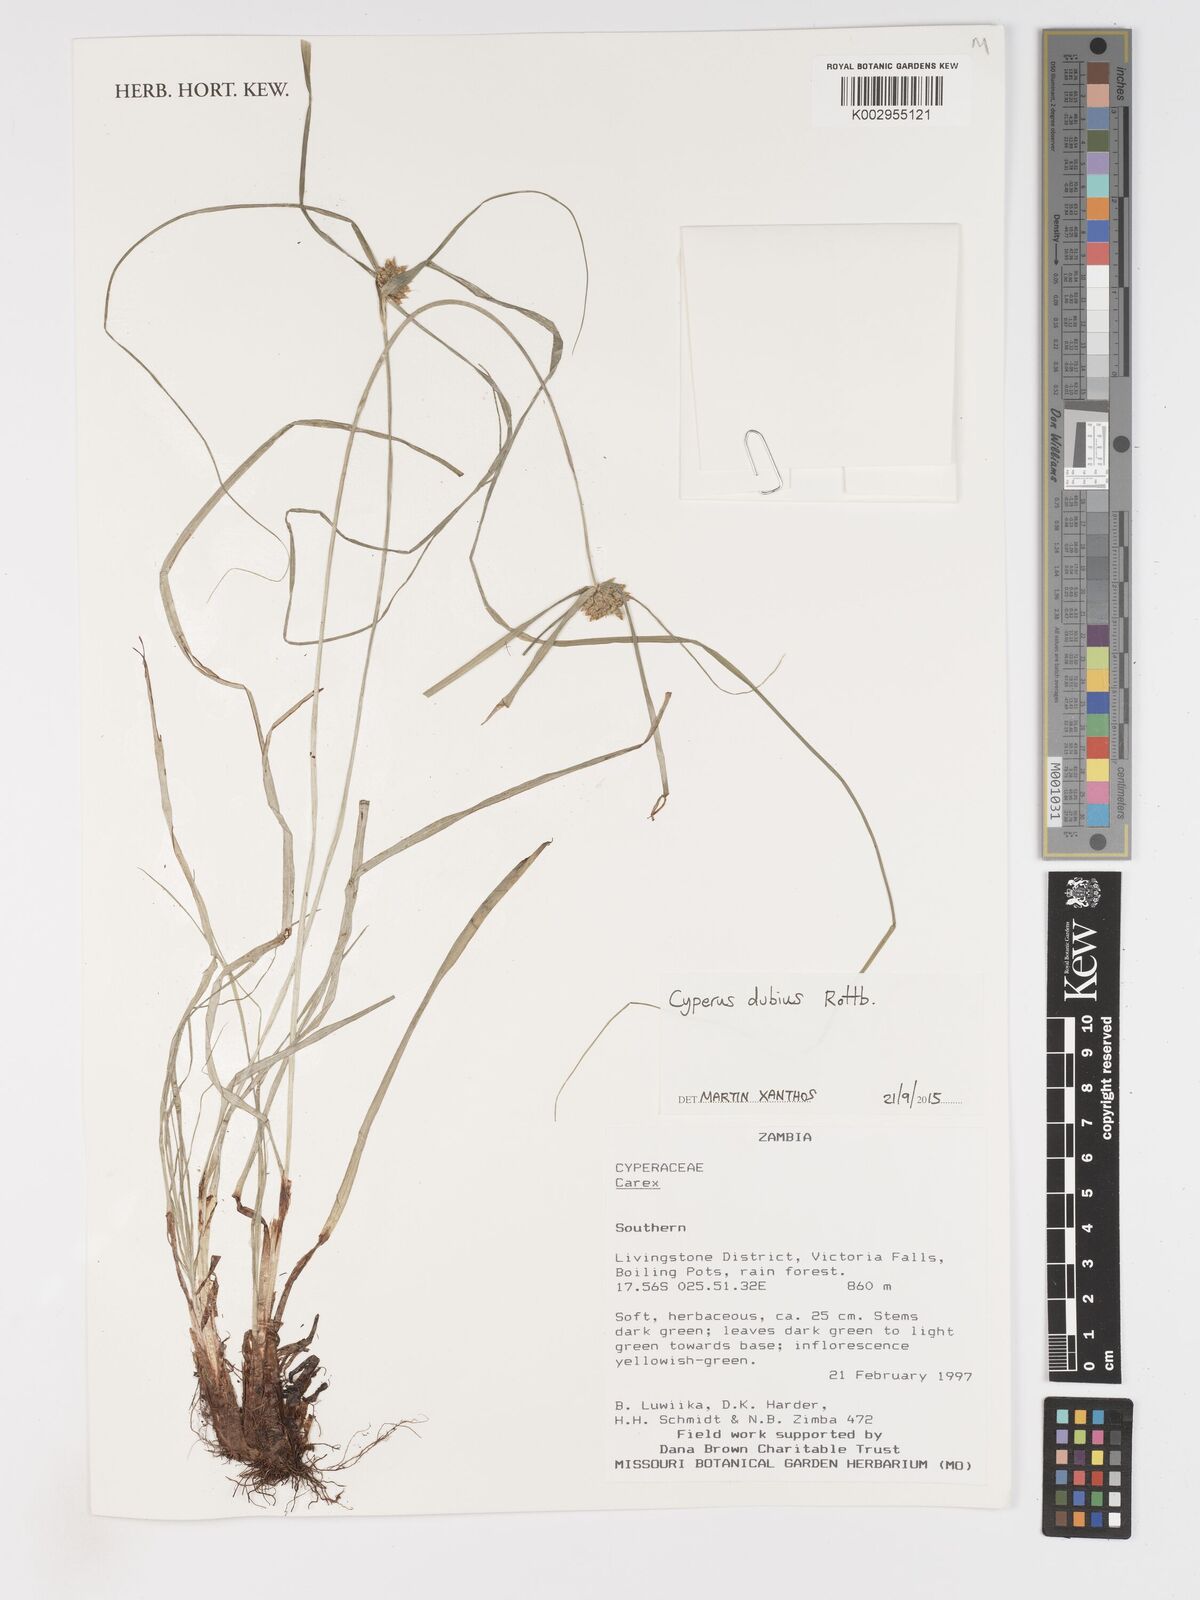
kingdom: Plantae
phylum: Tracheophyta
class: Liliopsida
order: Poales
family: Cyperaceae
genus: Cyperus
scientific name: Cyperus dubius
